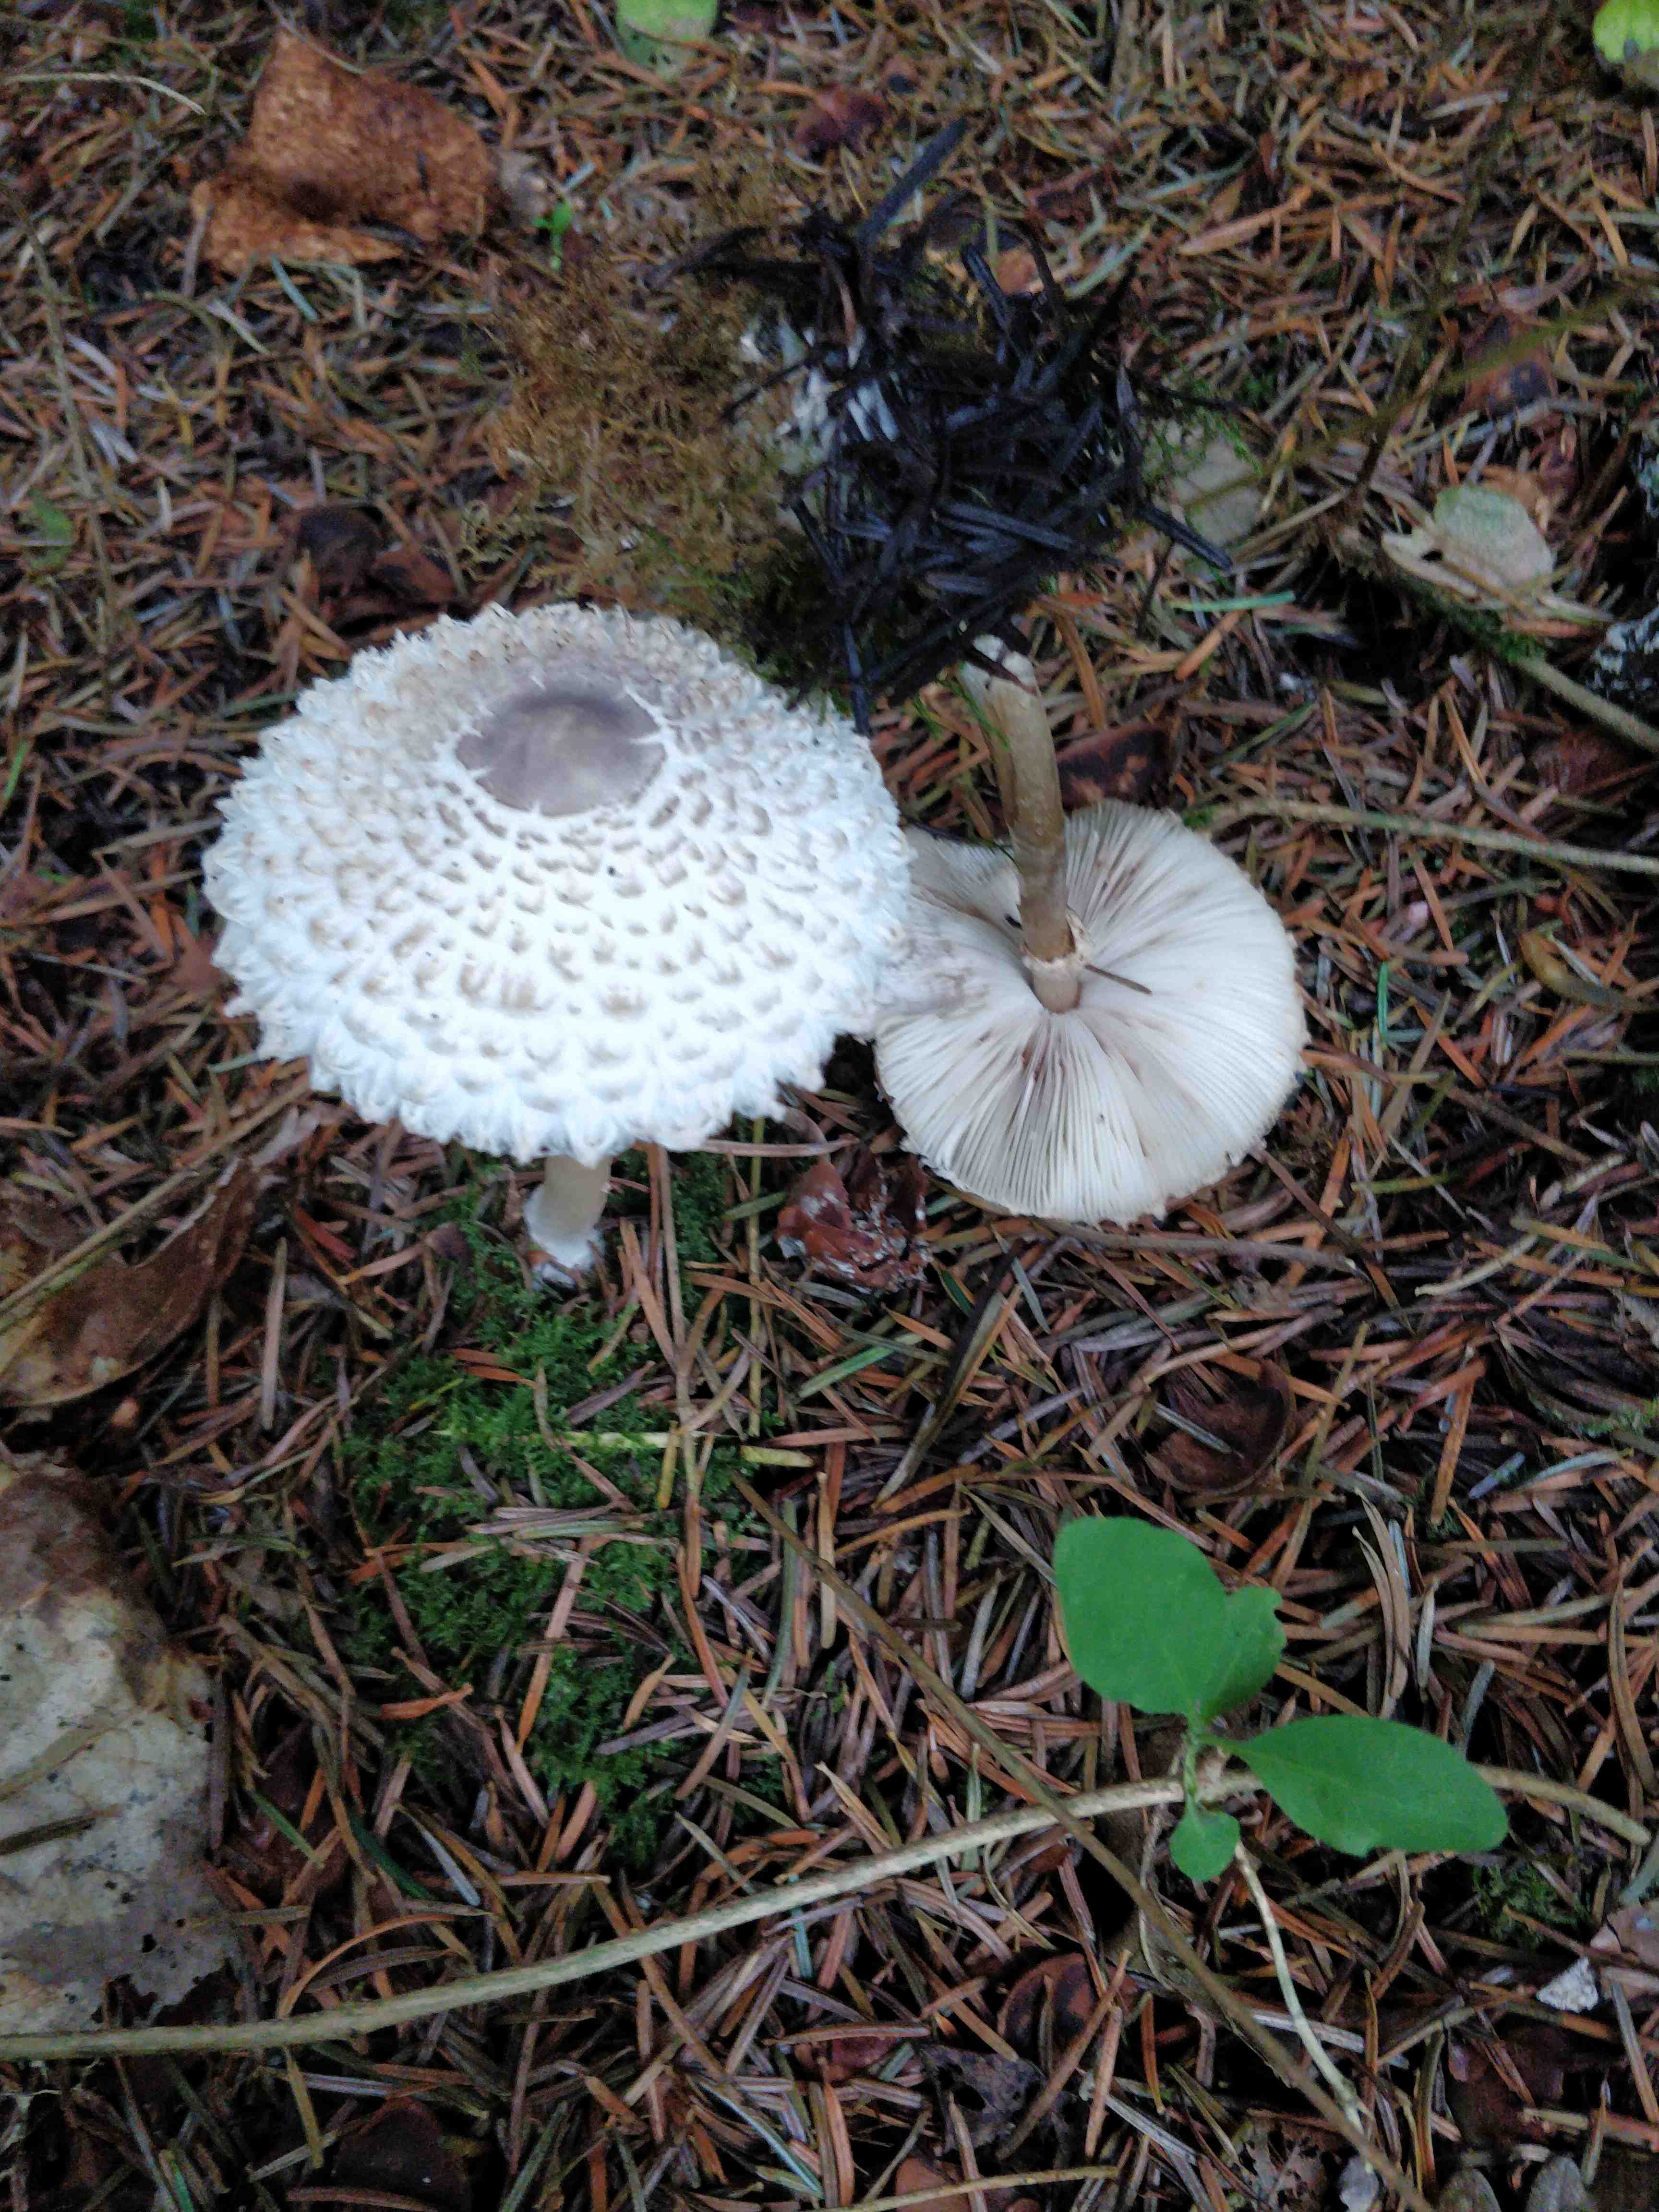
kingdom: Fungi
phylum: Basidiomycota
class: Agaricomycetes
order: Agaricales
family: Agaricaceae
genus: Leucoagaricus
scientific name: Leucoagaricus nympharum
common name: gran-silkehat
